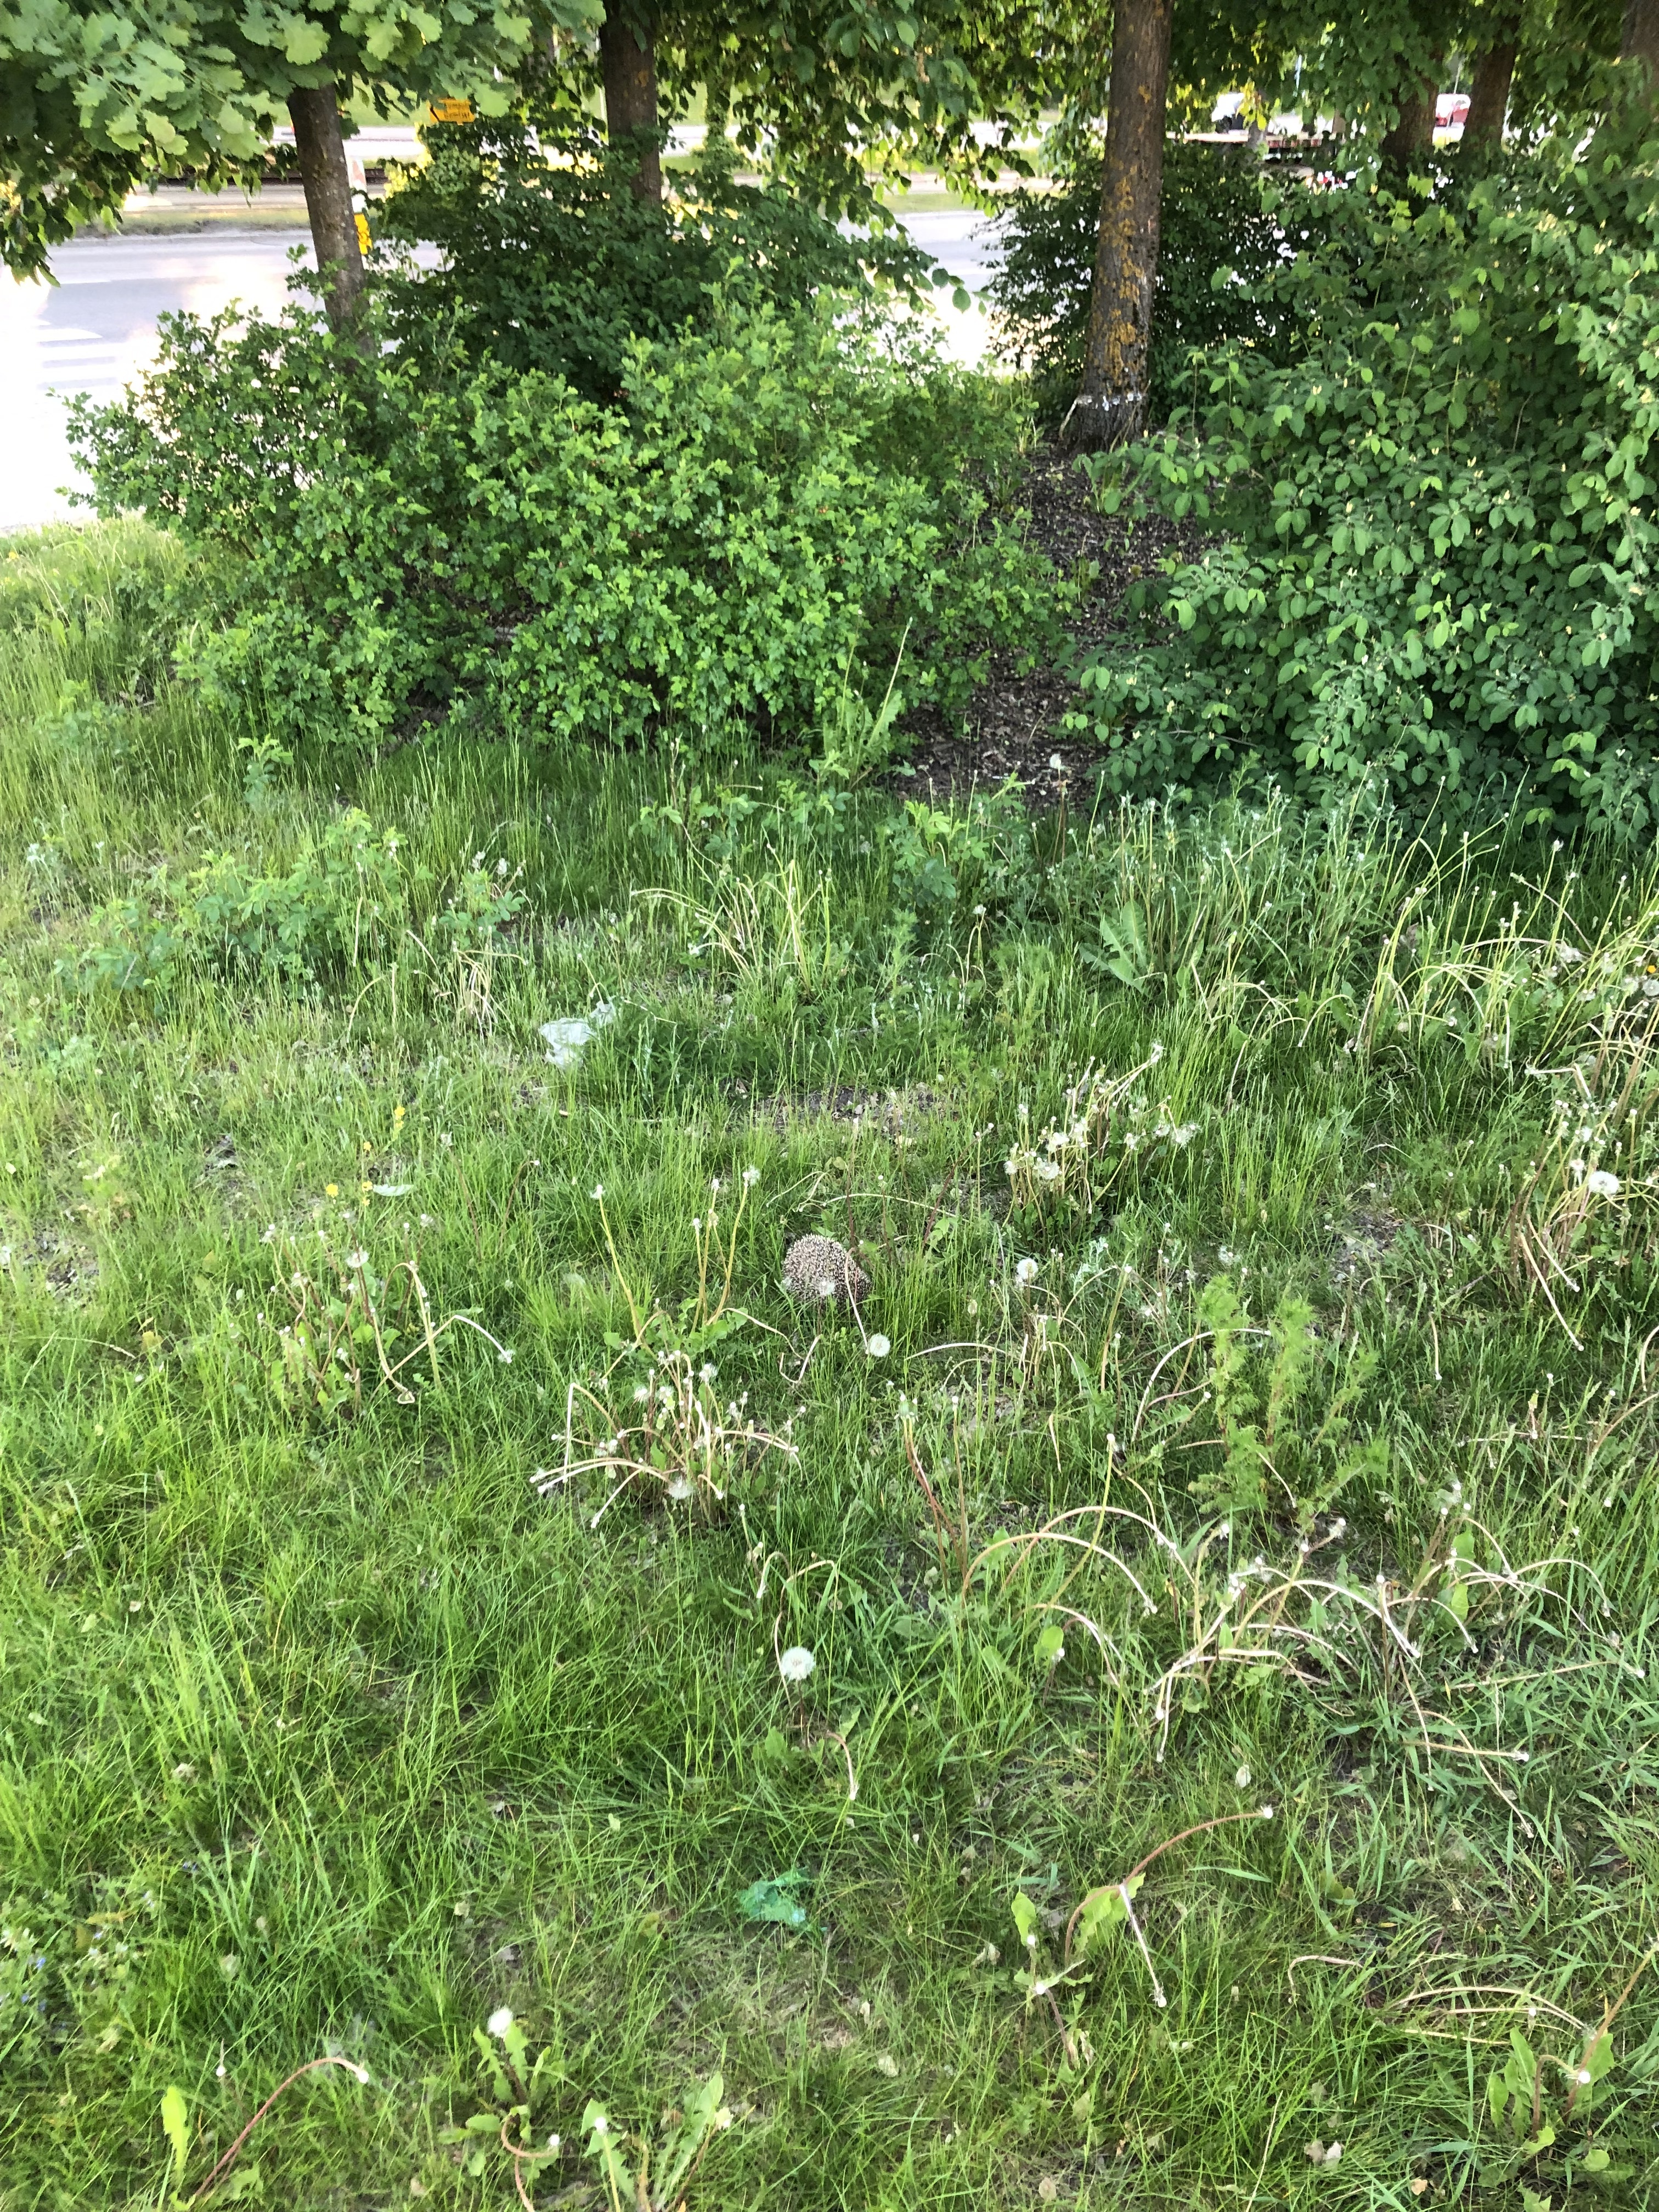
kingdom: Animalia
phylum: Chordata
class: Mammalia
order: Erinaceomorpha
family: Erinaceidae
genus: Erinaceus
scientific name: Erinaceus europaeus
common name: West european hedgehog
